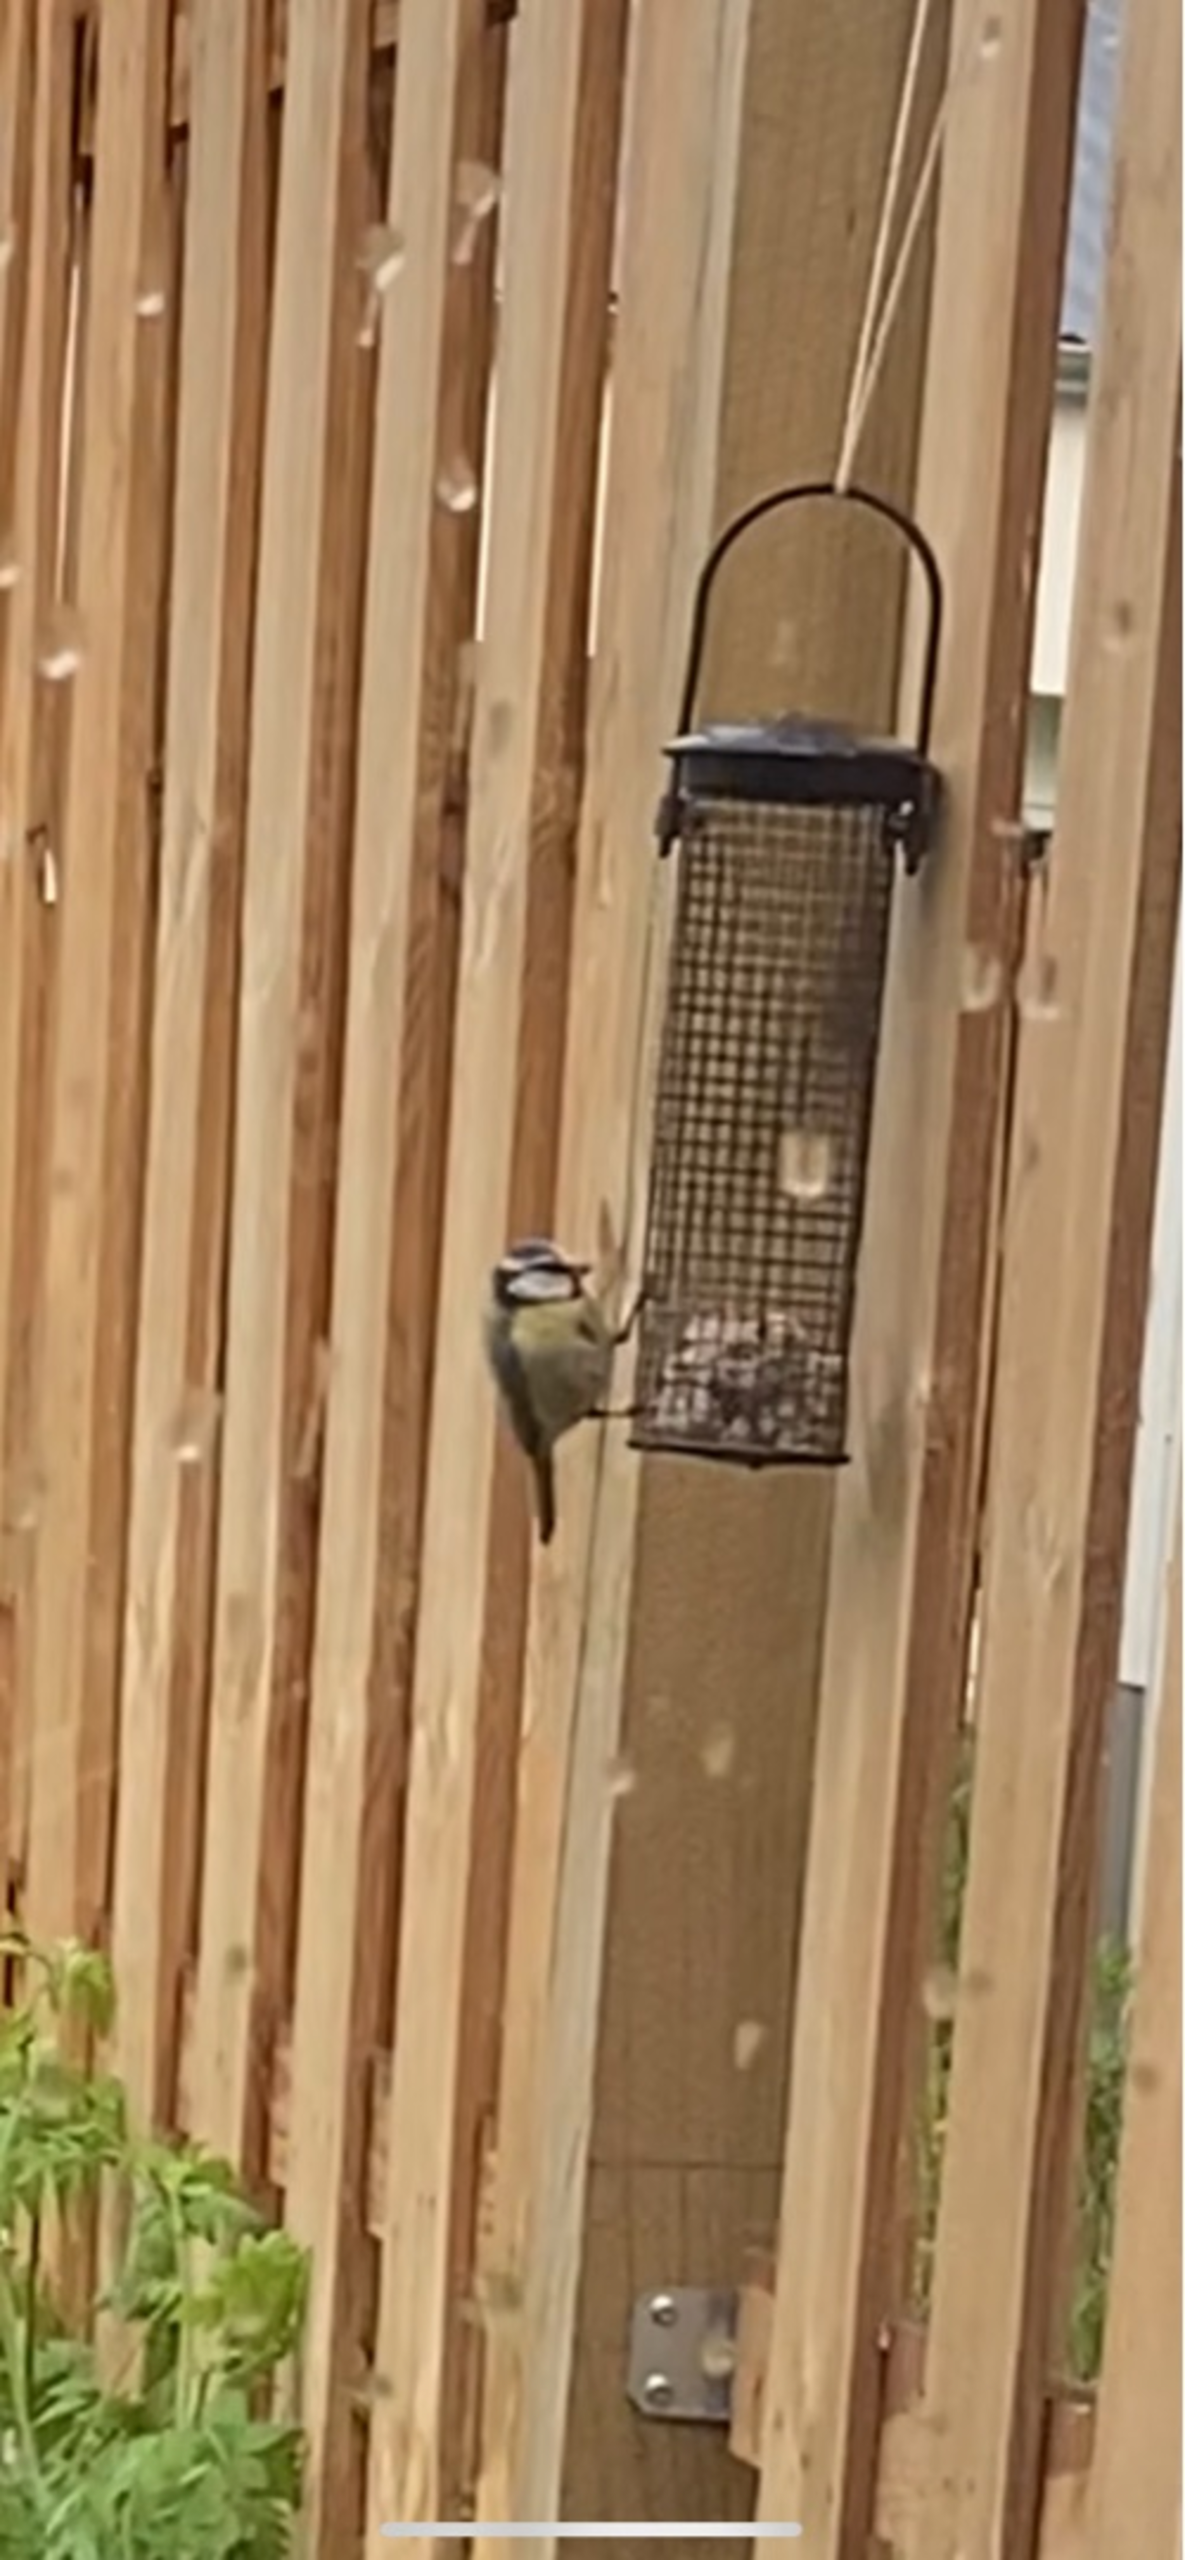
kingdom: Animalia
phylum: Chordata
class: Aves
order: Passeriformes
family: Paridae
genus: Cyanistes
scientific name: Cyanistes caeruleus
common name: Blåmejse
